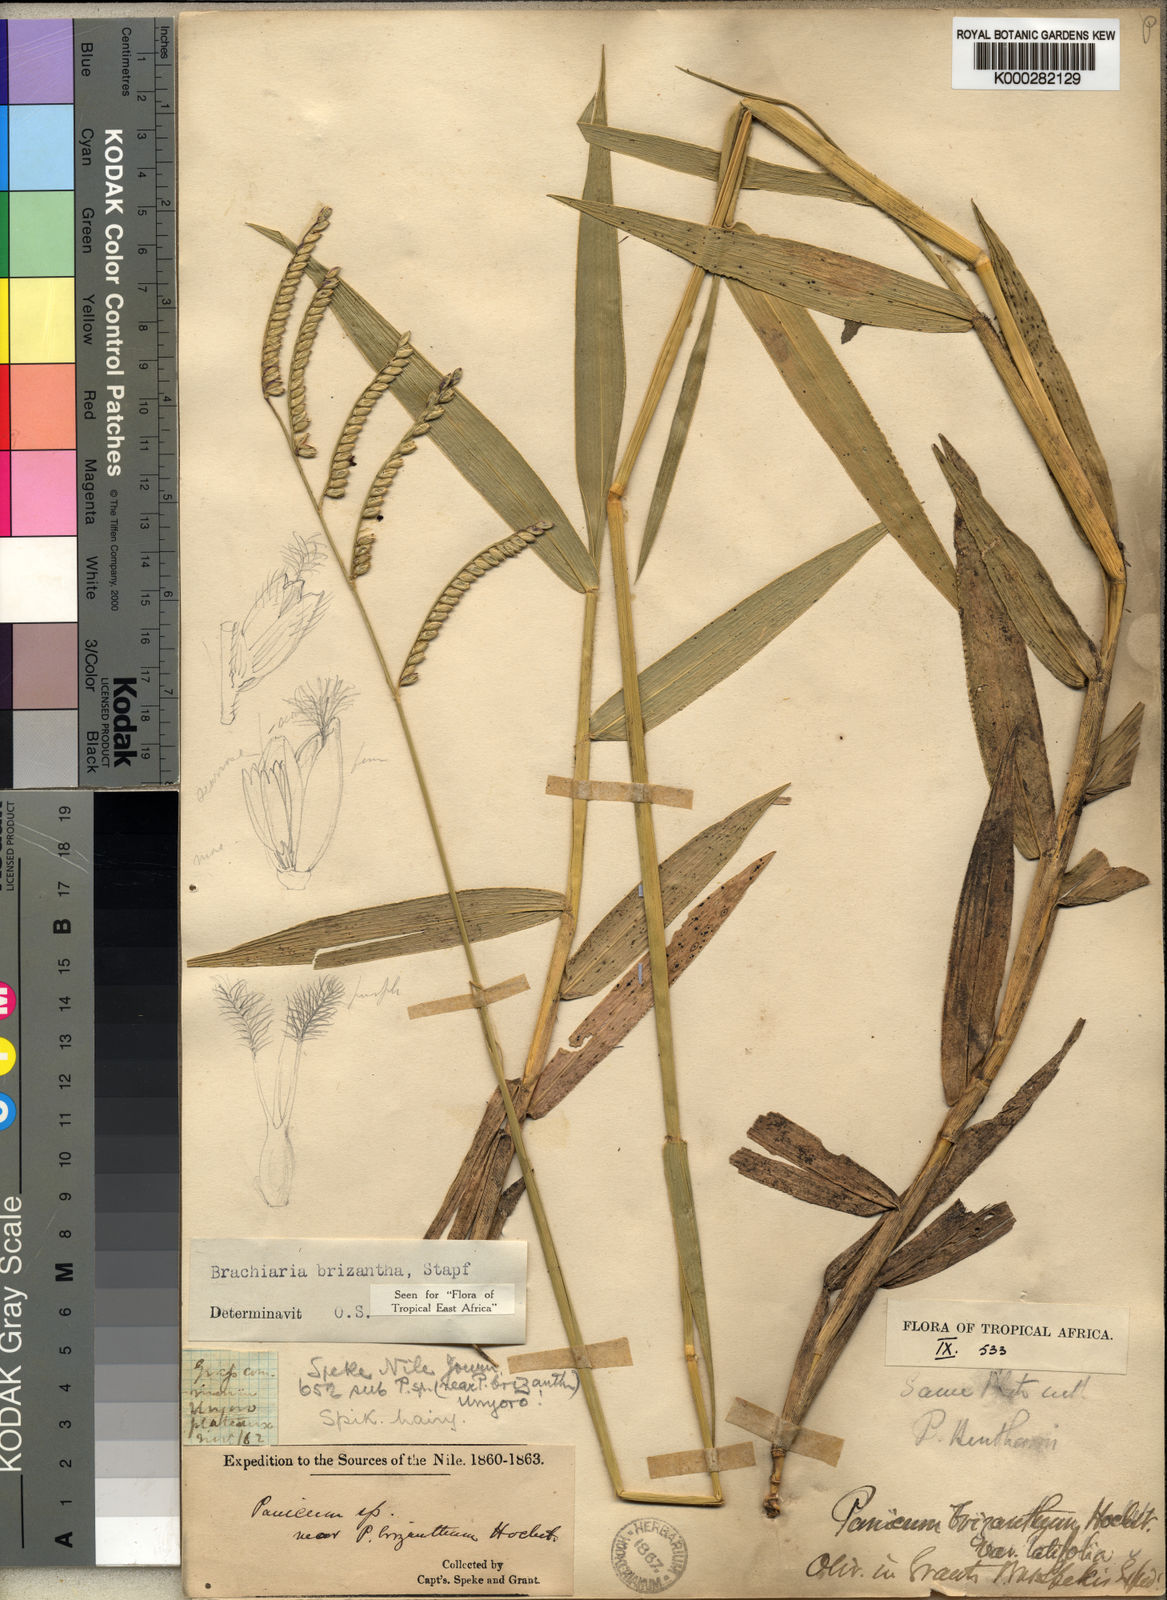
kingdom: Plantae
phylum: Tracheophyta
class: Liliopsida
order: Poales
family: Poaceae
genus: Urochloa
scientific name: Urochloa brizantha
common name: Palisade signalgrass
